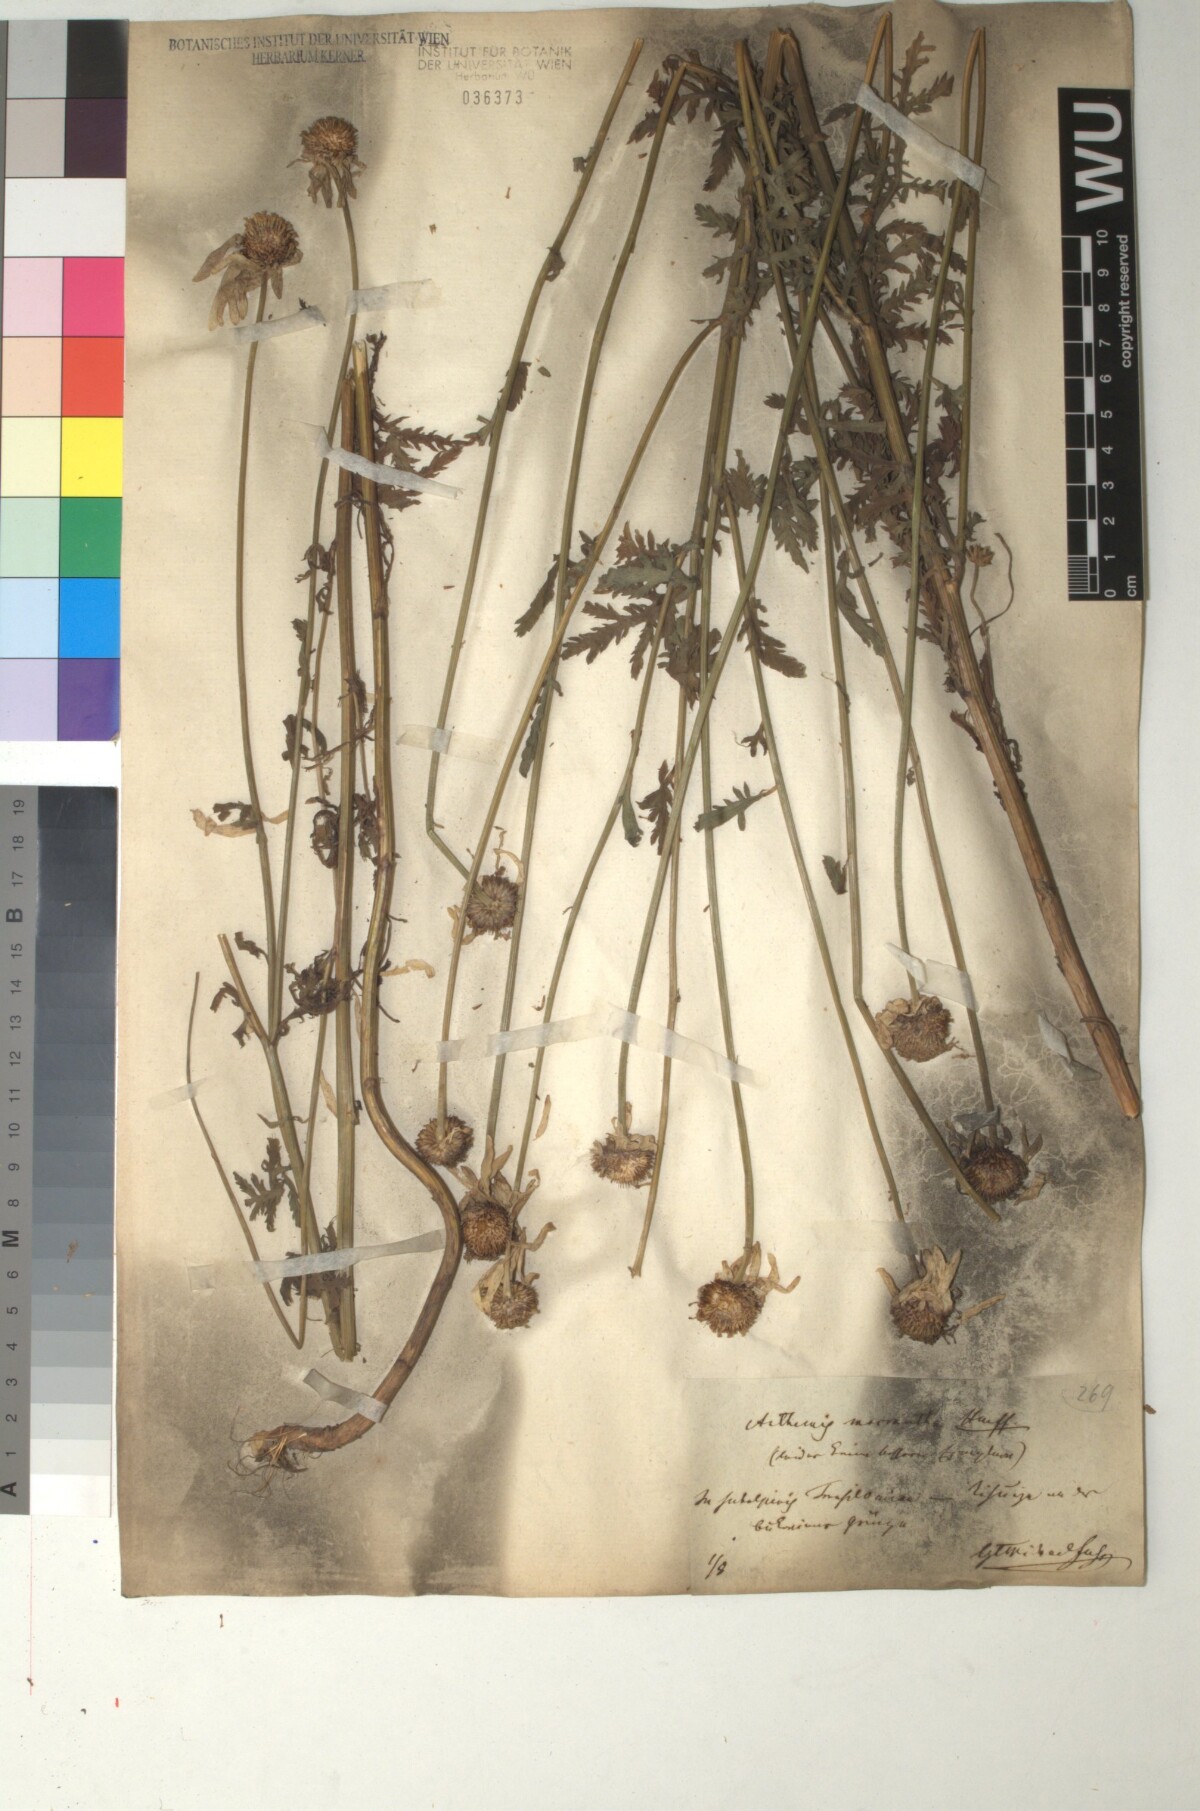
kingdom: Plantae
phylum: Tracheophyta
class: Magnoliopsida
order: Asterales
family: Asteraceae
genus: Cota
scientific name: Cota macrantha
